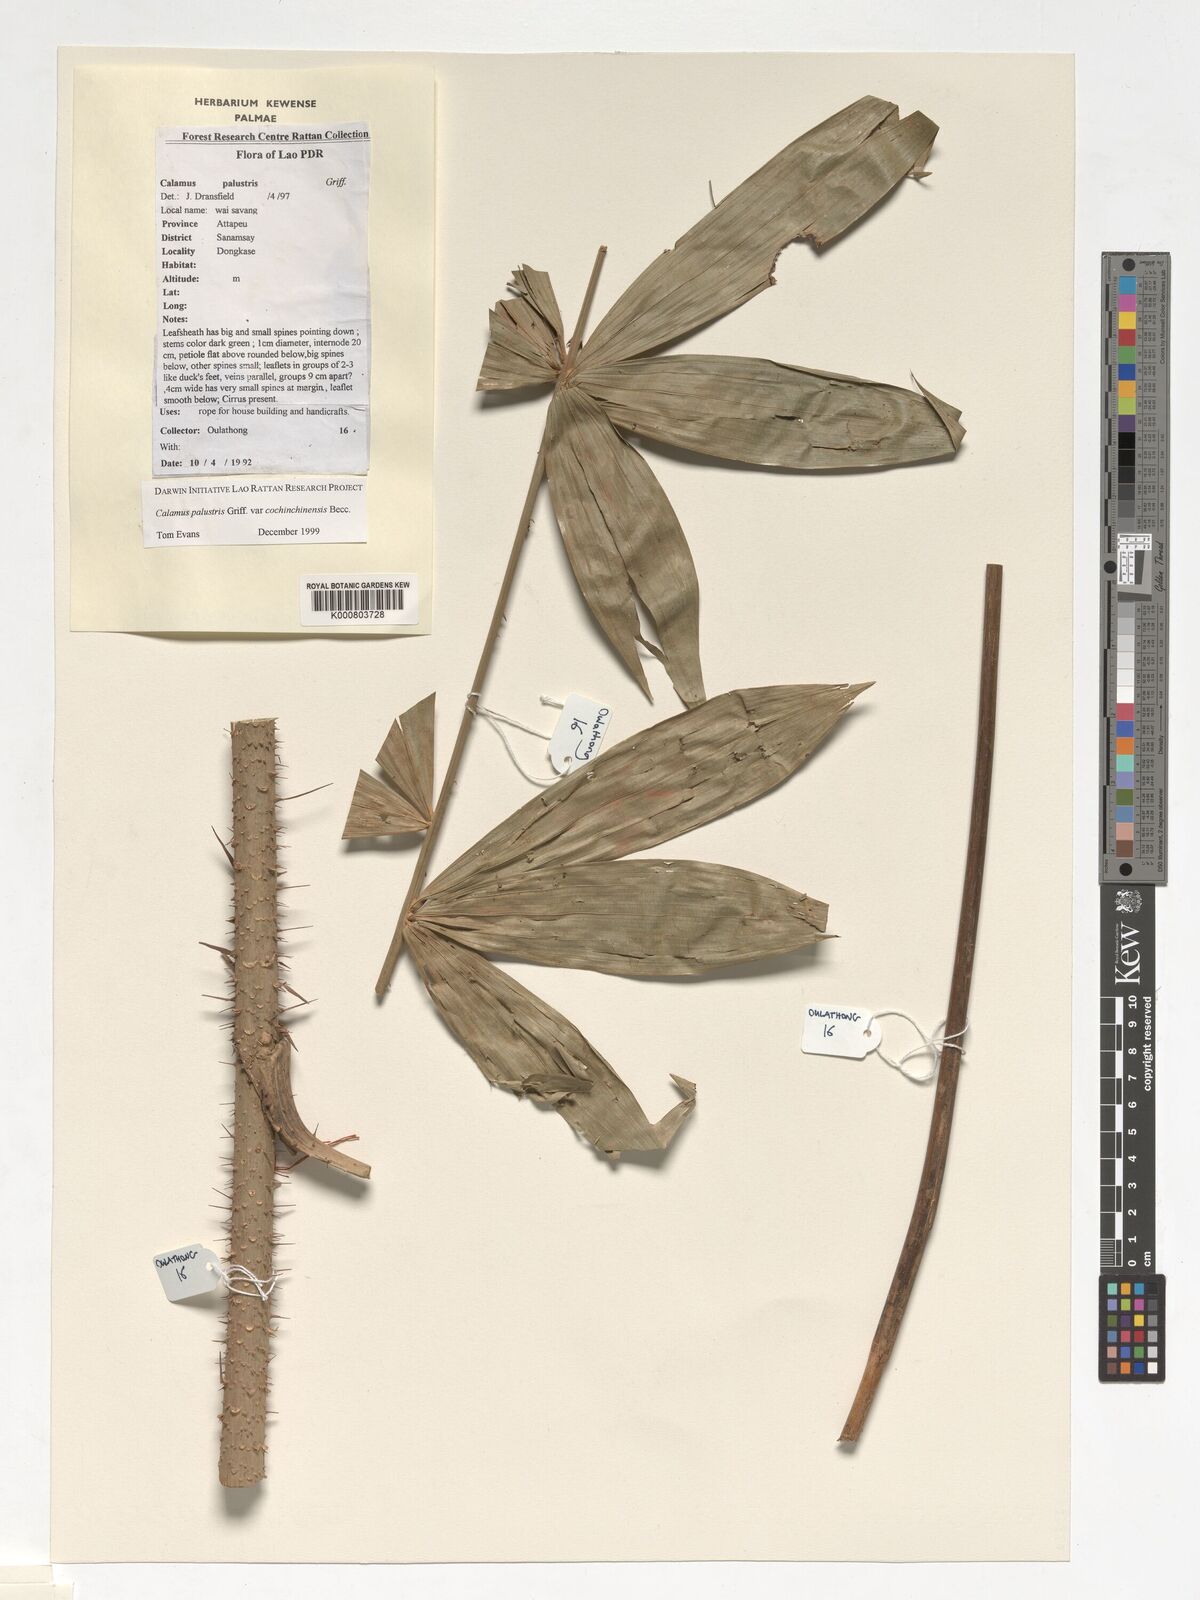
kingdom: Plantae
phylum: Tracheophyta
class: Liliopsida
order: Arecales
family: Arecaceae
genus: Calamus
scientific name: Calamus latifolius
